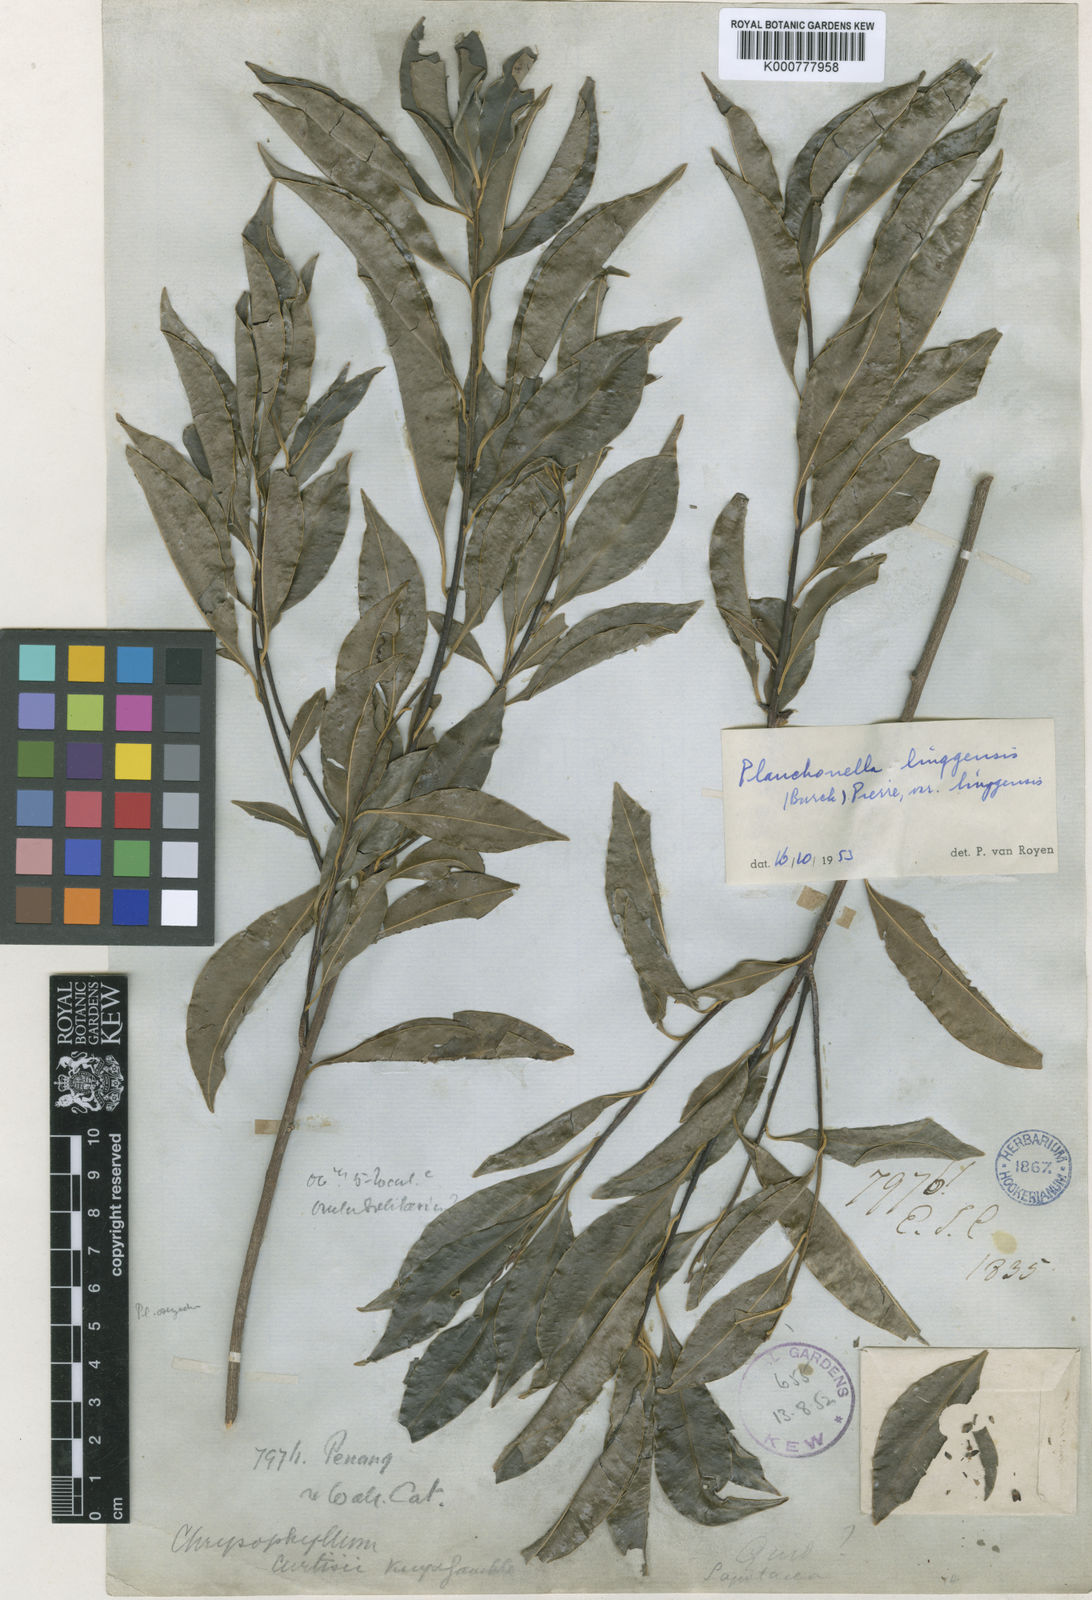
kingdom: Plantae
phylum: Tracheophyta
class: Magnoliopsida
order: Ericales
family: Sapotaceae
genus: Planchonella
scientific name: Planchonella chartacea
